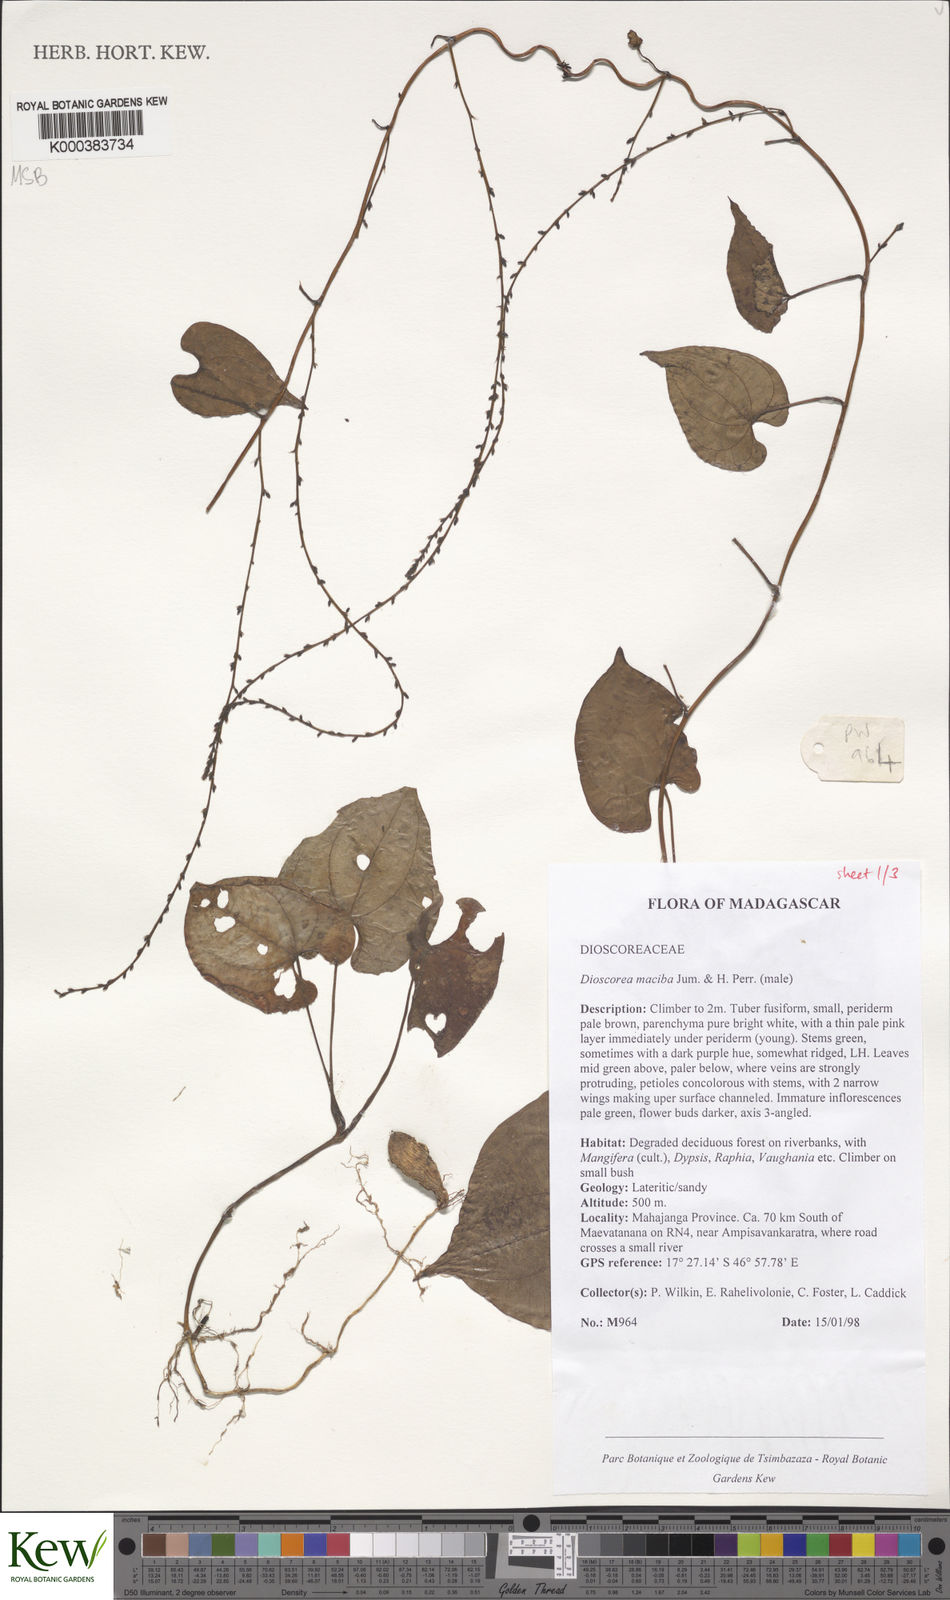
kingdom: Plantae
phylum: Tracheophyta
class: Liliopsida
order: Dioscoreales
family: Dioscoreaceae
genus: Dioscorea
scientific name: Dioscorea
